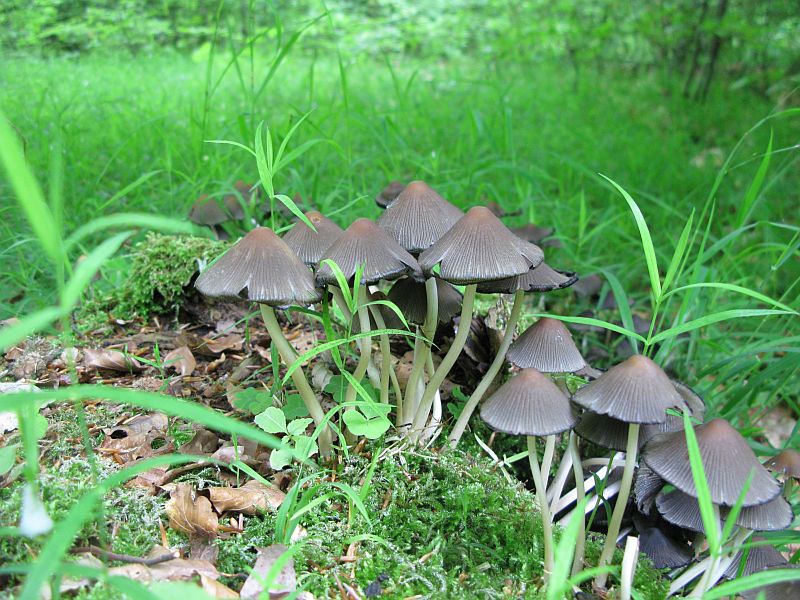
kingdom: Fungi
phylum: Basidiomycota
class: Agaricomycetes
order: Agaricales
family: Psathyrellaceae
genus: Coprinellus
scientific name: Coprinellus micaceus
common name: glimmer-blækhat
